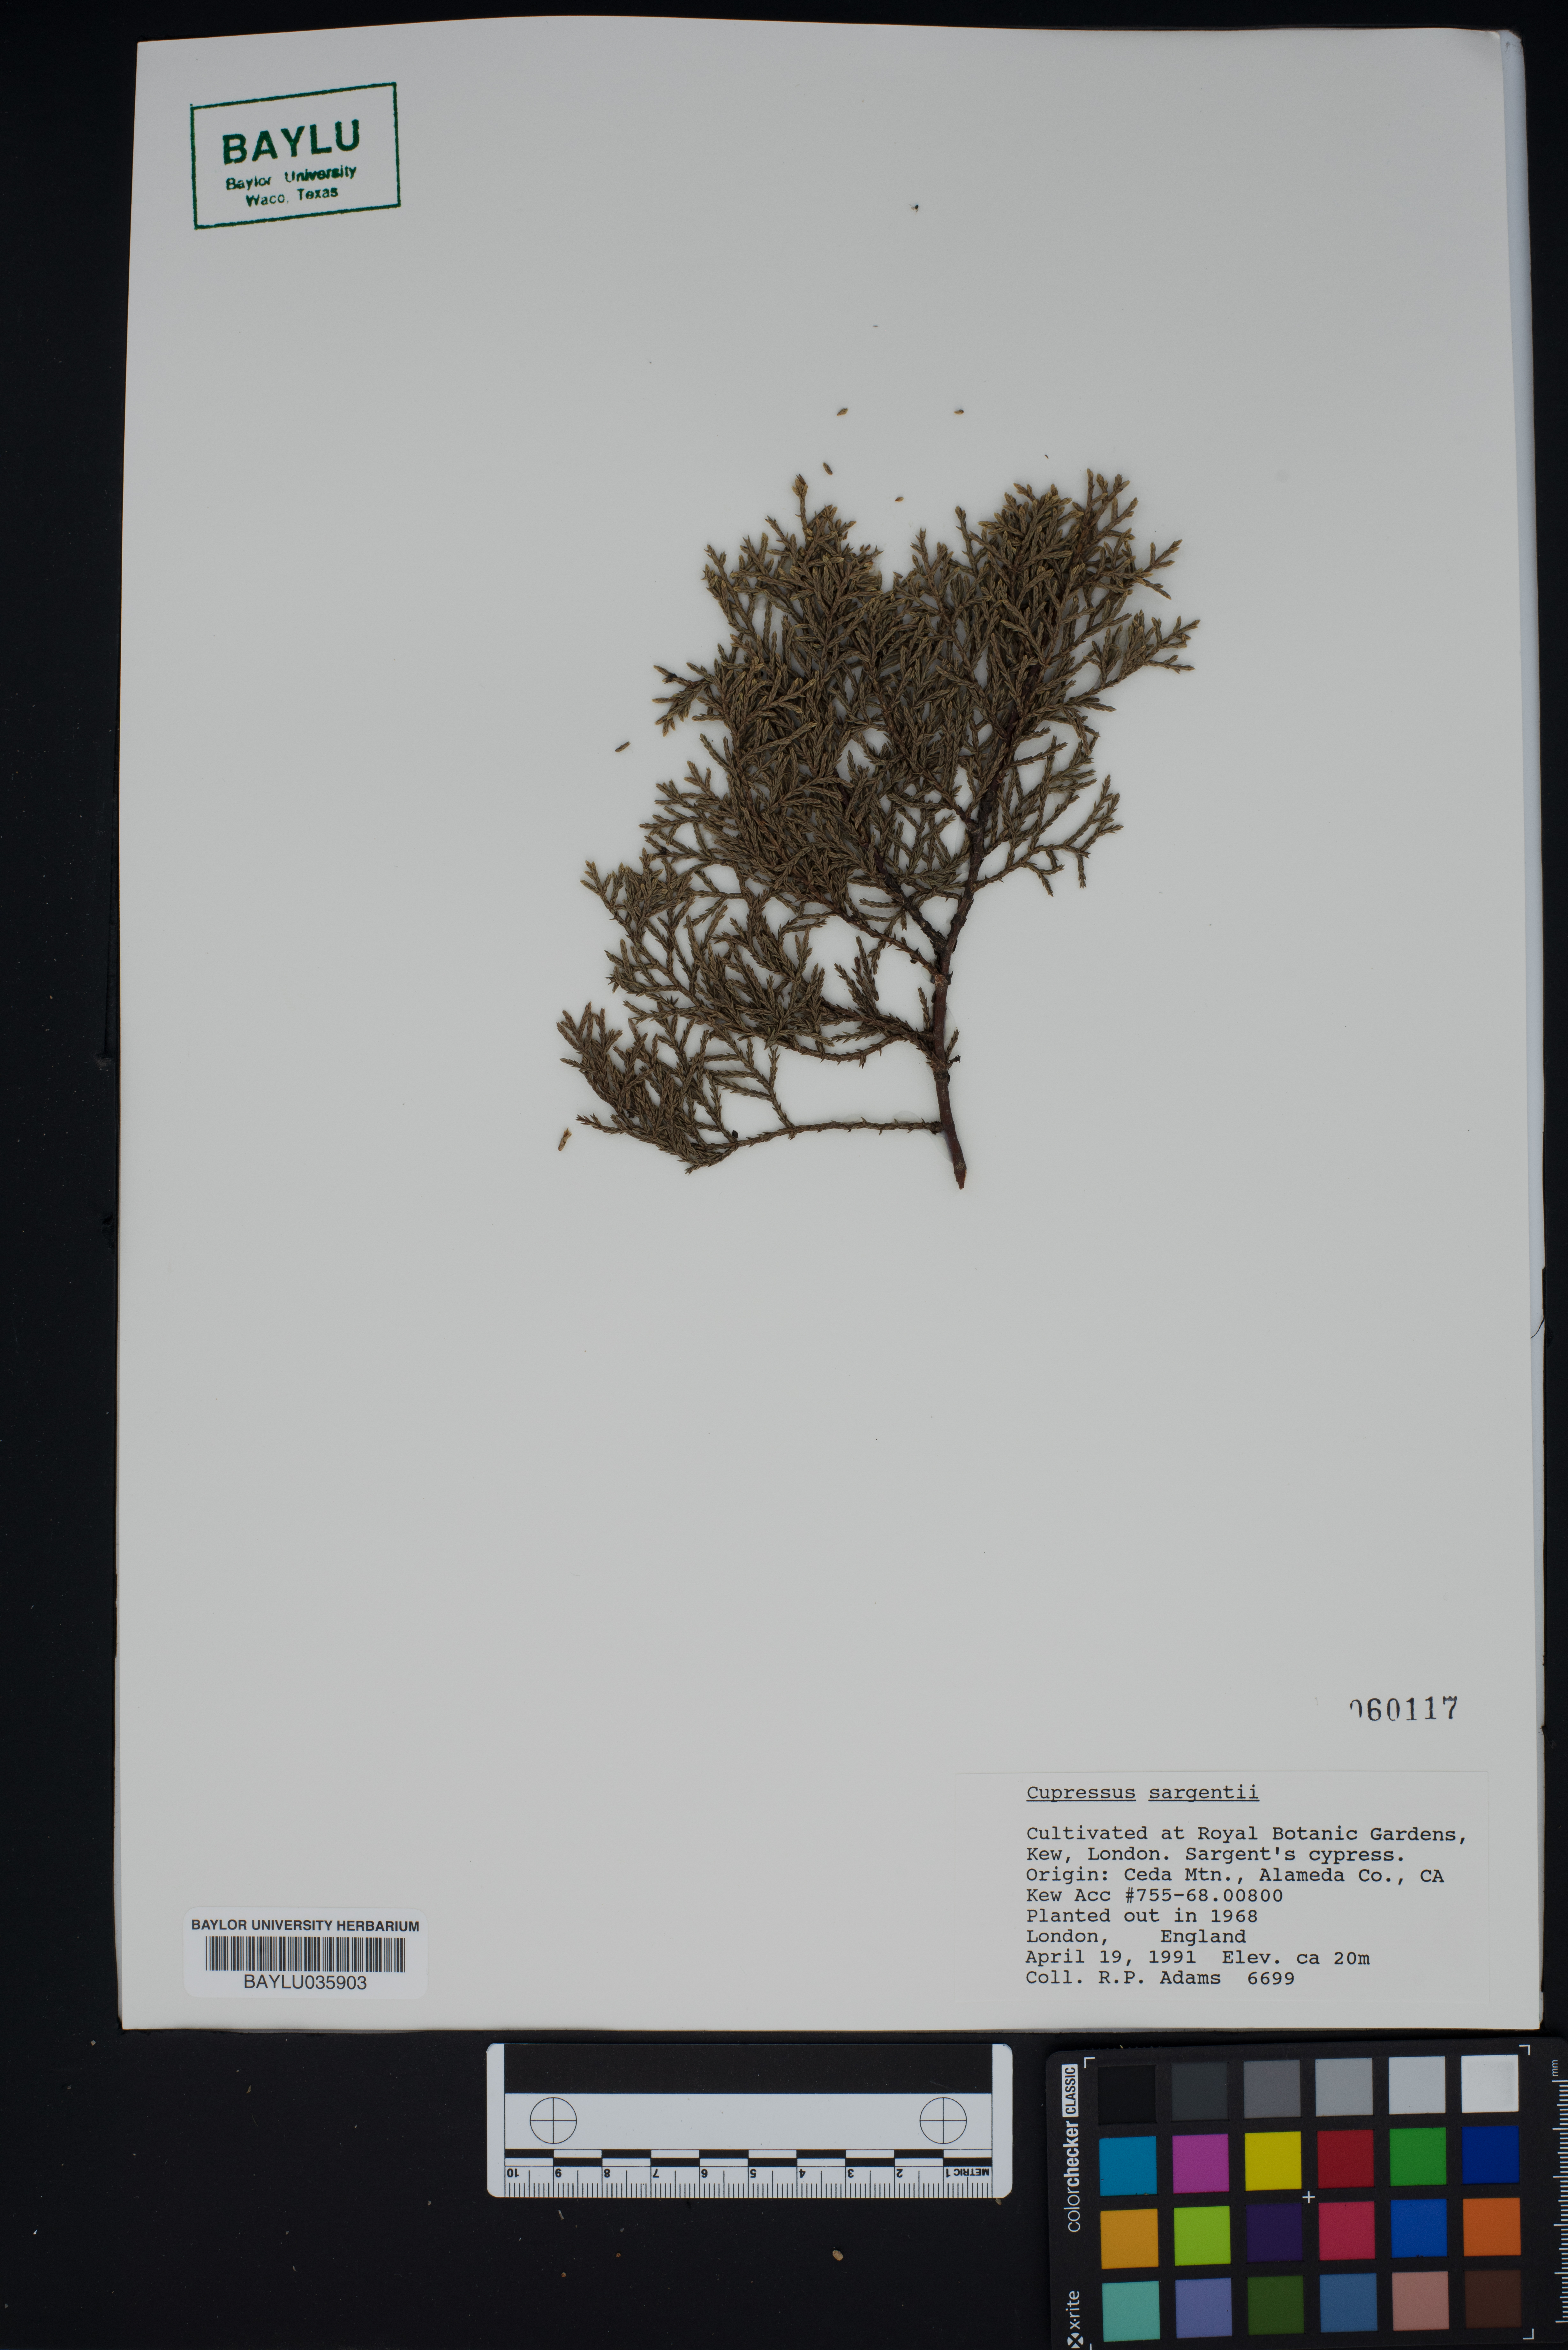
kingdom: Plantae
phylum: Tracheophyta
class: Pinopsida
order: Pinales
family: Cupressaceae
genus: Cupressus
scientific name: Cupressus sargentii
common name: Sargent cypress
